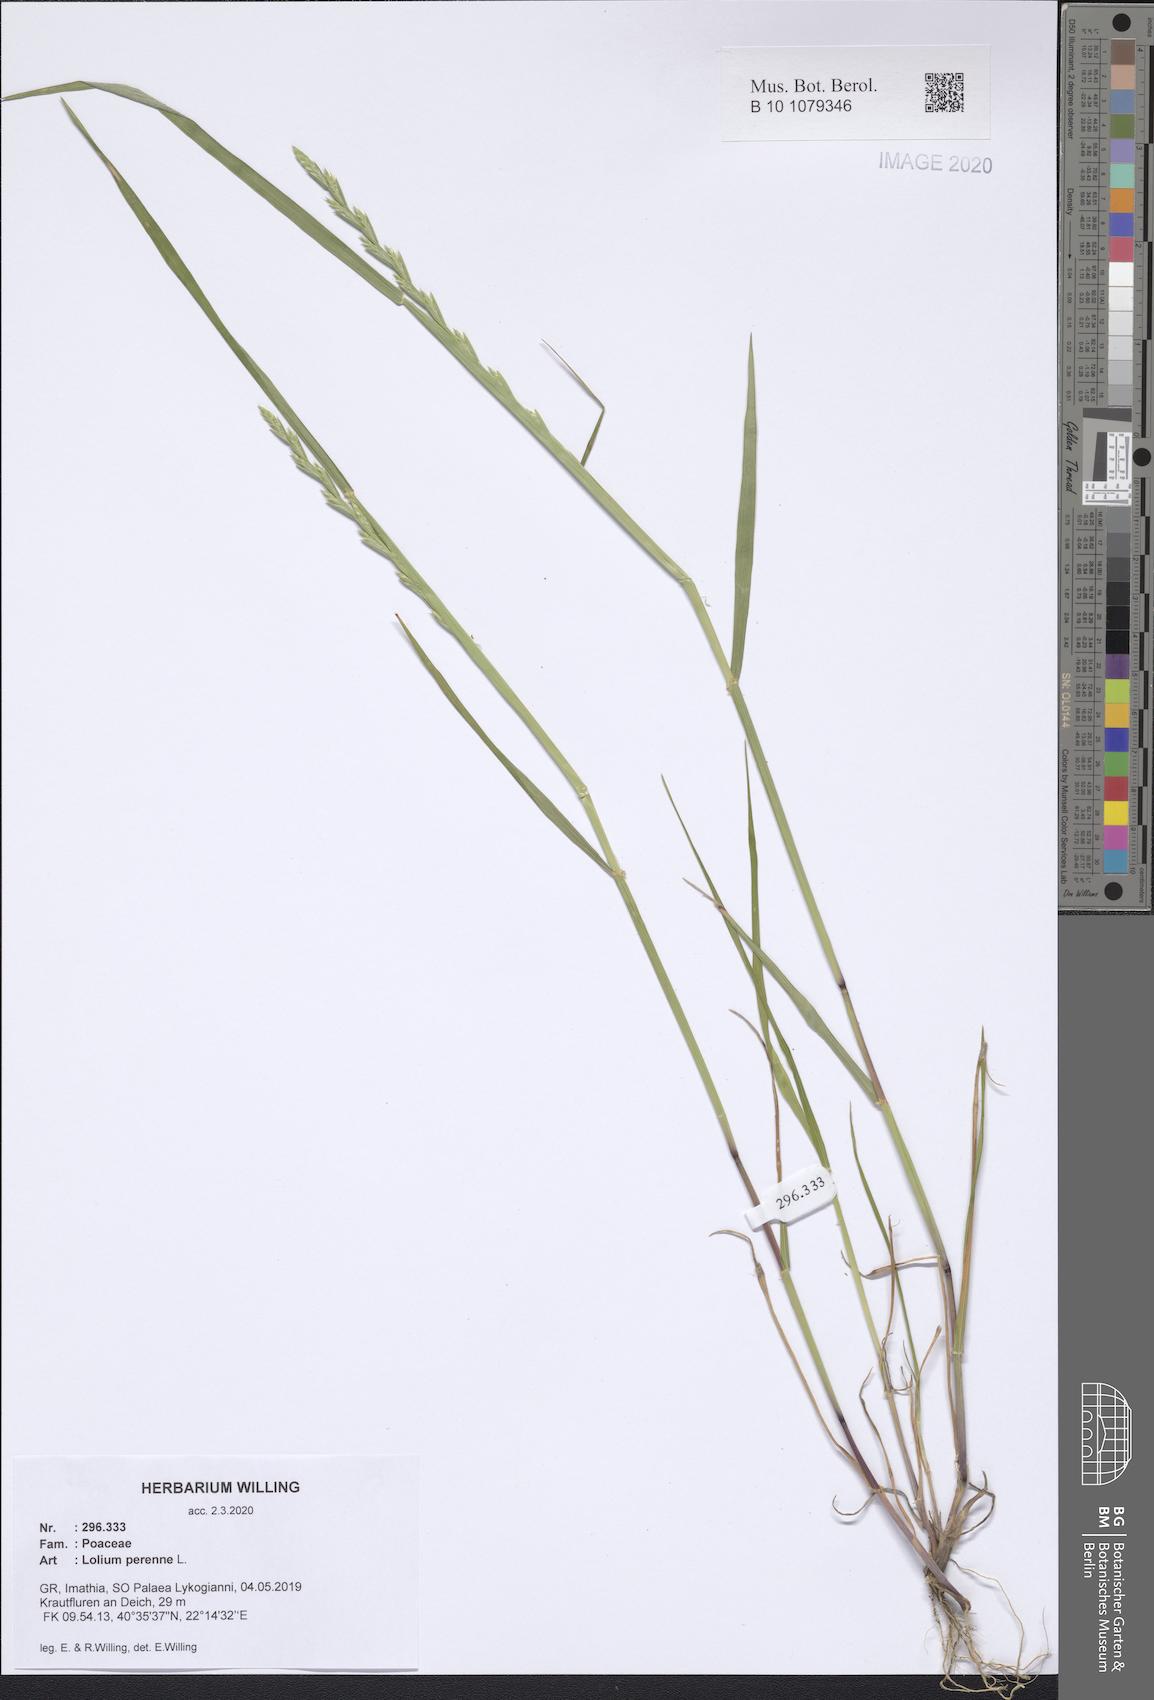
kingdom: Plantae
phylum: Tracheophyta
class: Liliopsida
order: Poales
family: Poaceae
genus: Lolium
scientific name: Lolium perenne
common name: Perennial ryegrass
